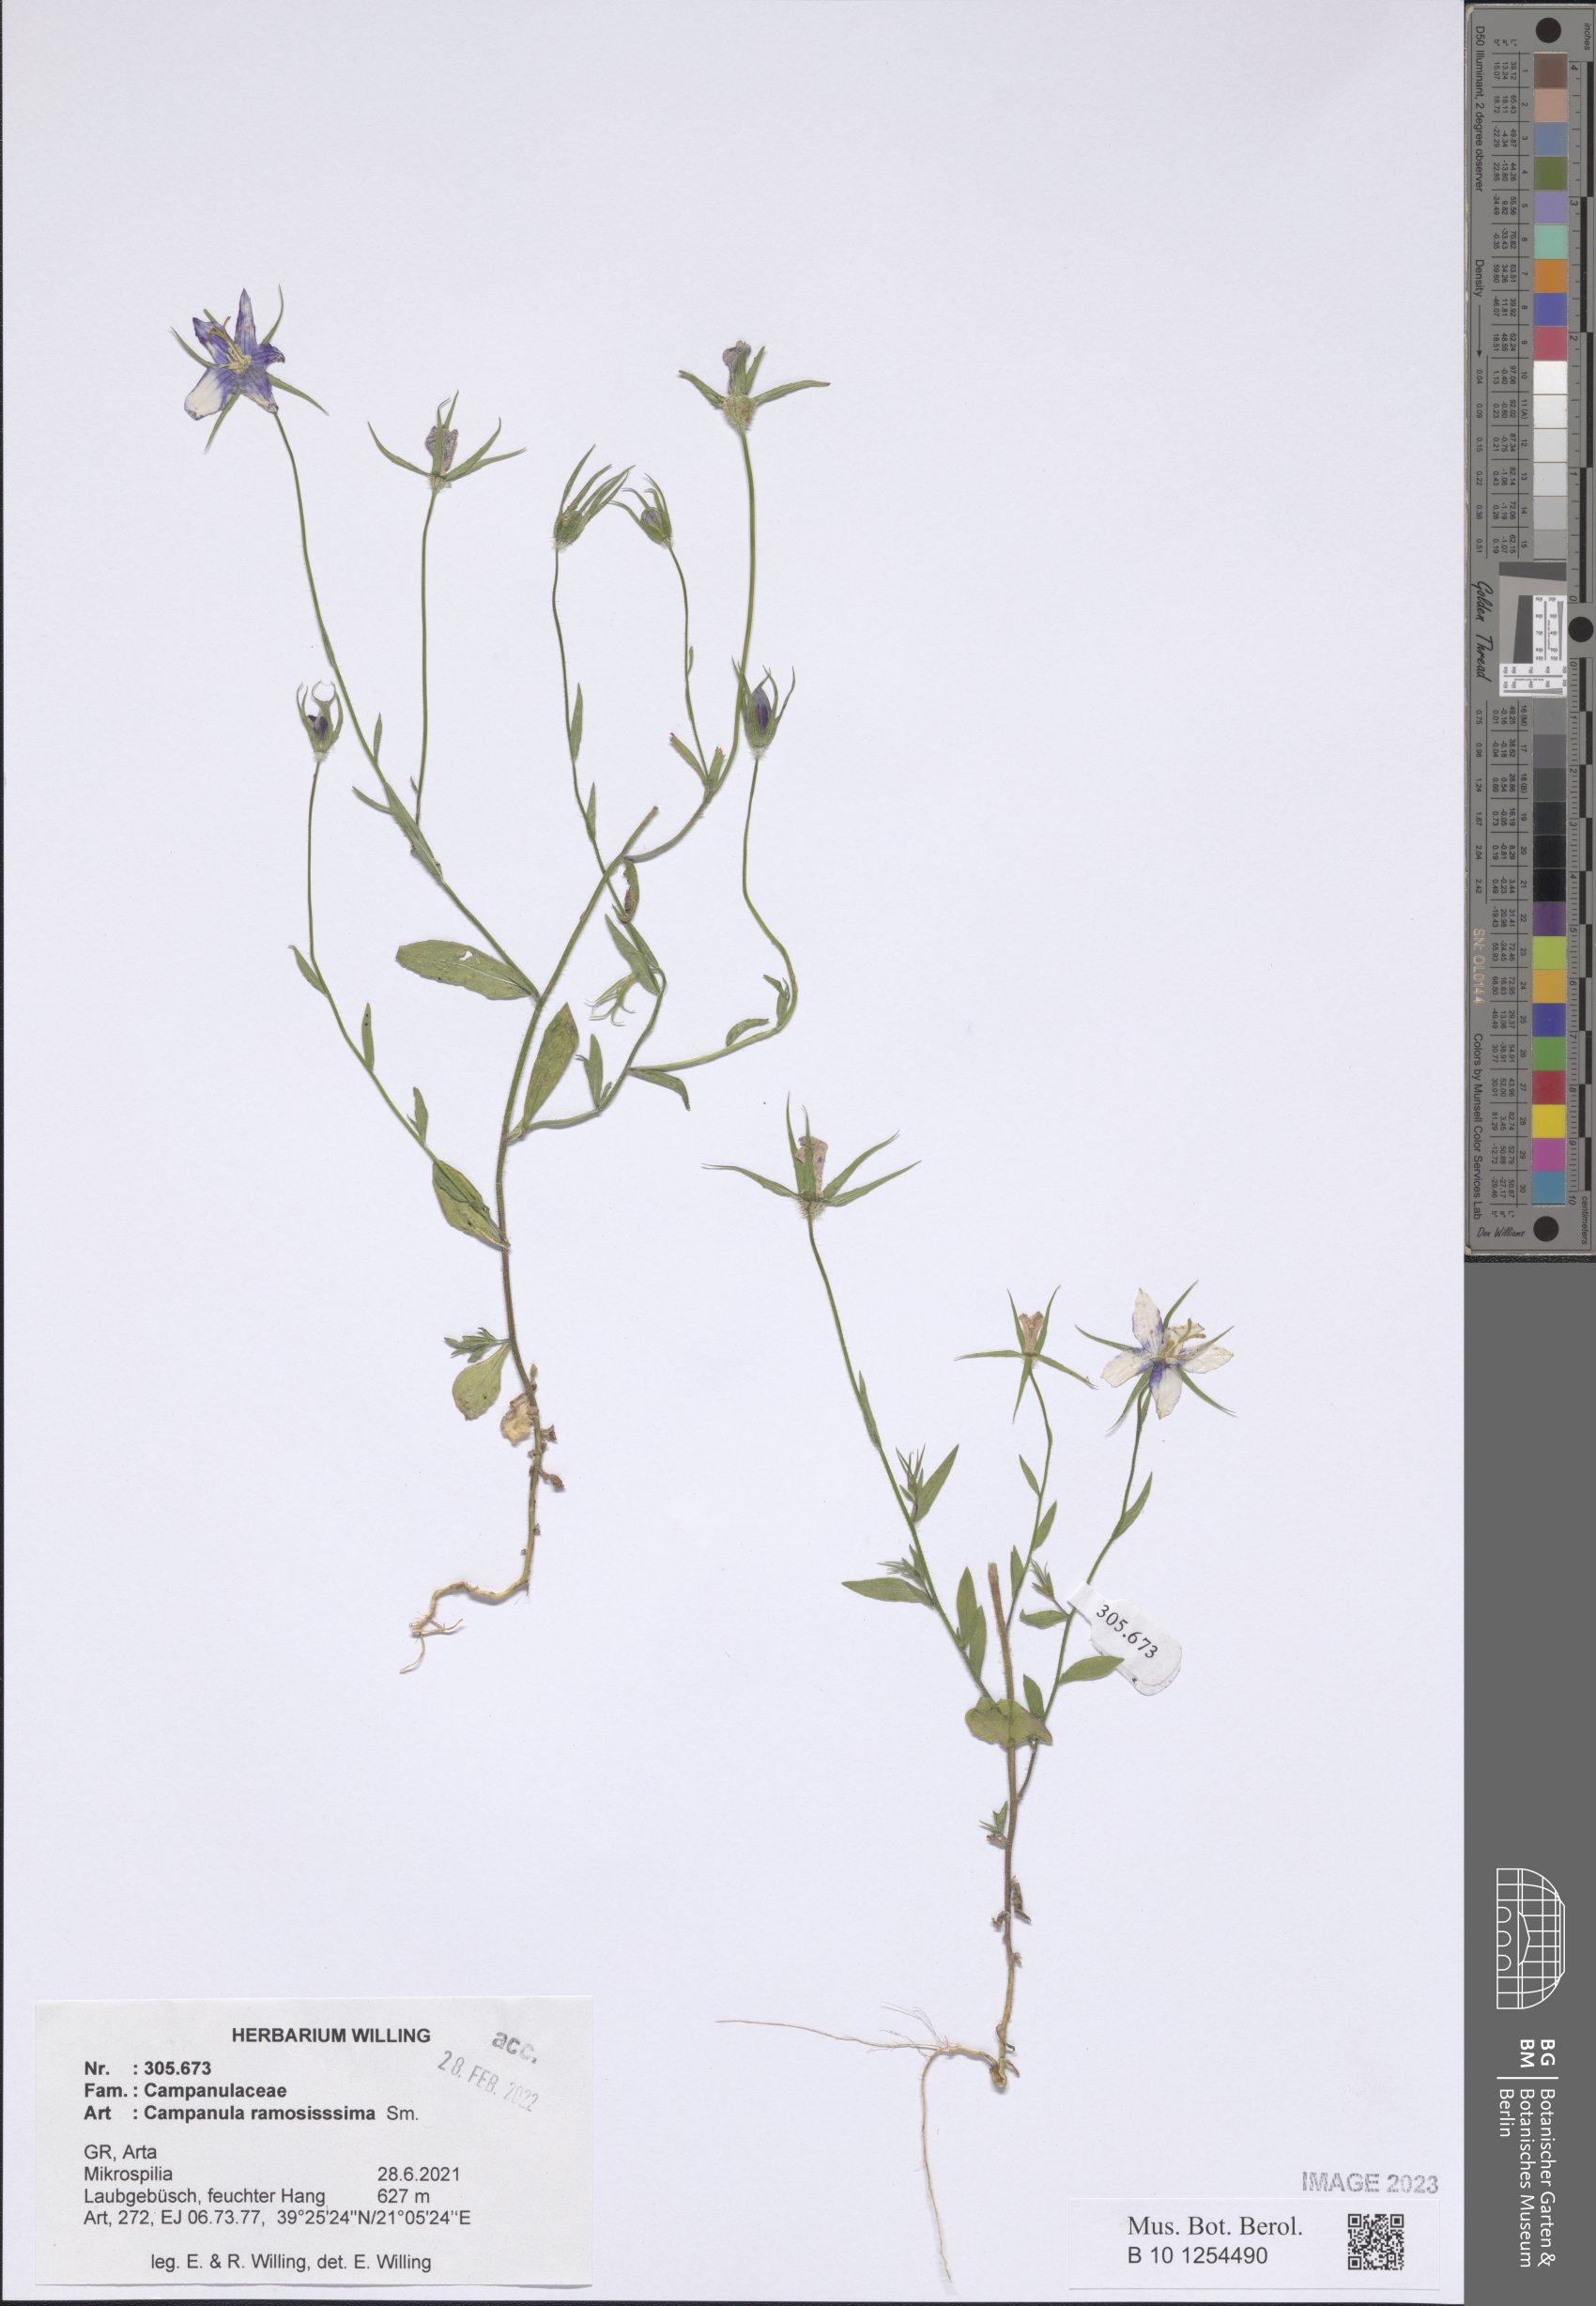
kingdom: Plantae
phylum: Tracheophyta
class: Magnoliopsida
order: Asterales
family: Campanulaceae
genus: Campanula
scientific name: Campanula ramosissima
